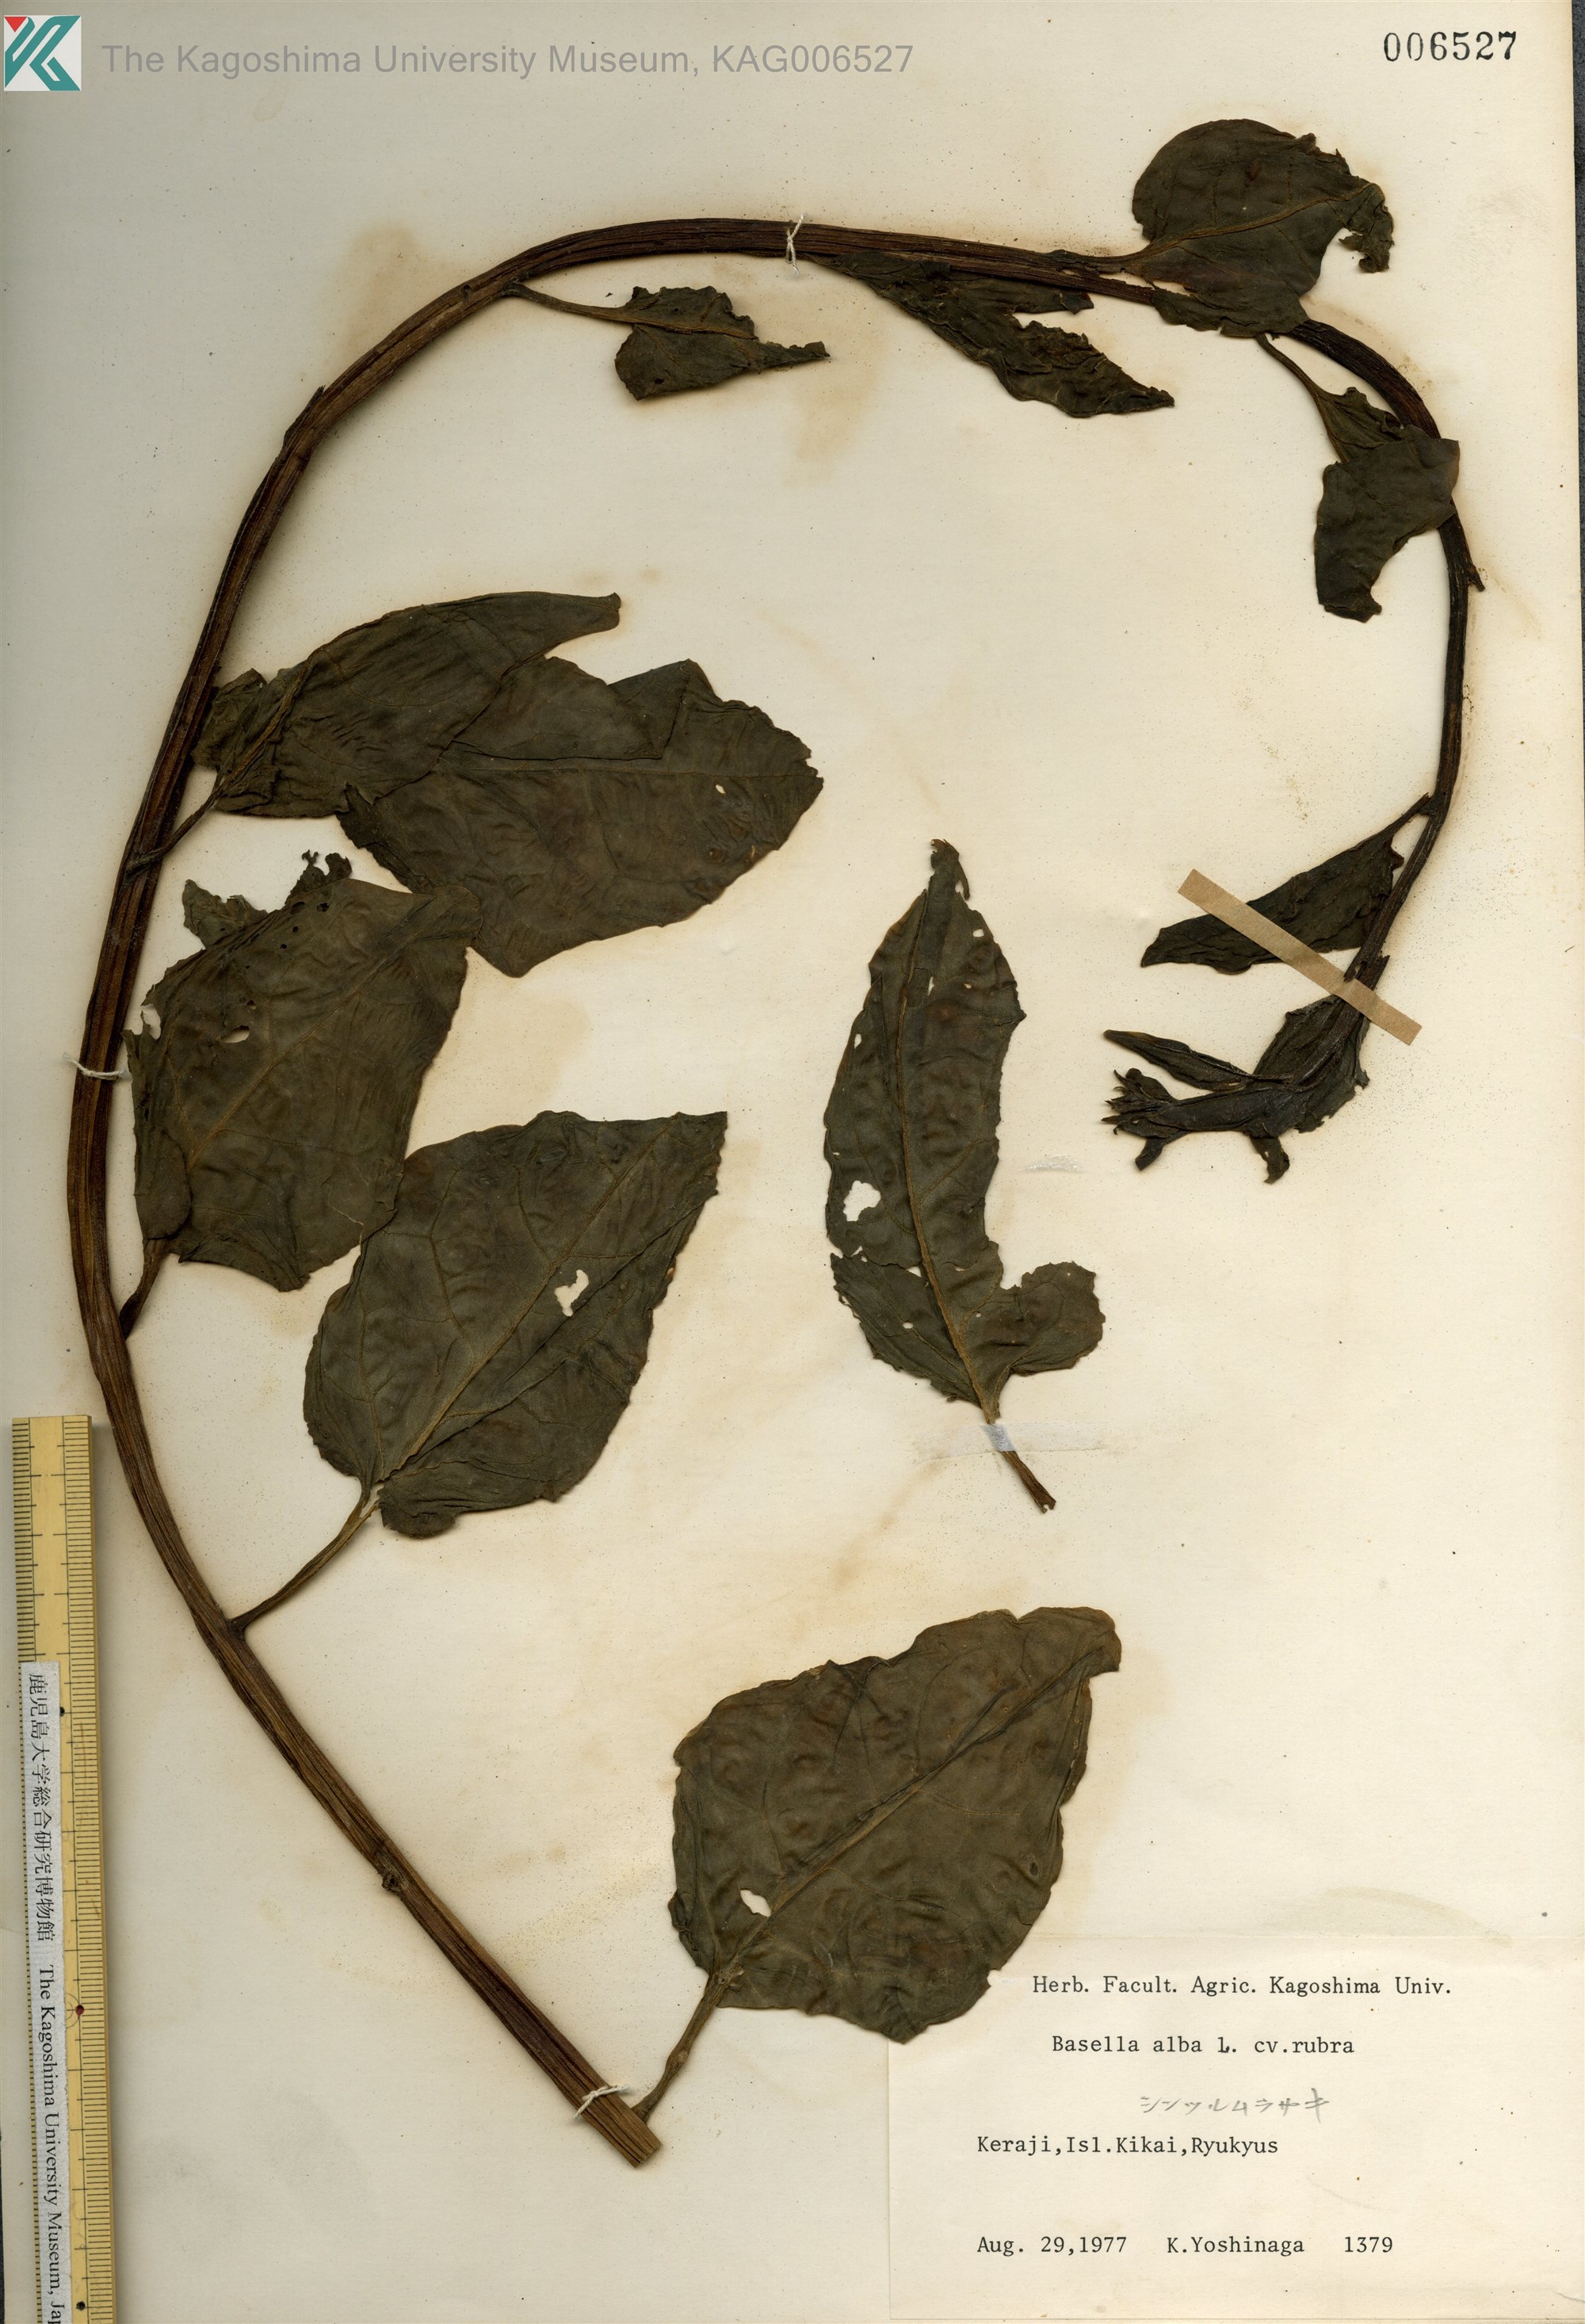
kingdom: Plantae
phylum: Tracheophyta
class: Magnoliopsida
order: Caryophyllales
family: Basellaceae
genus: Basella
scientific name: Basella alba
